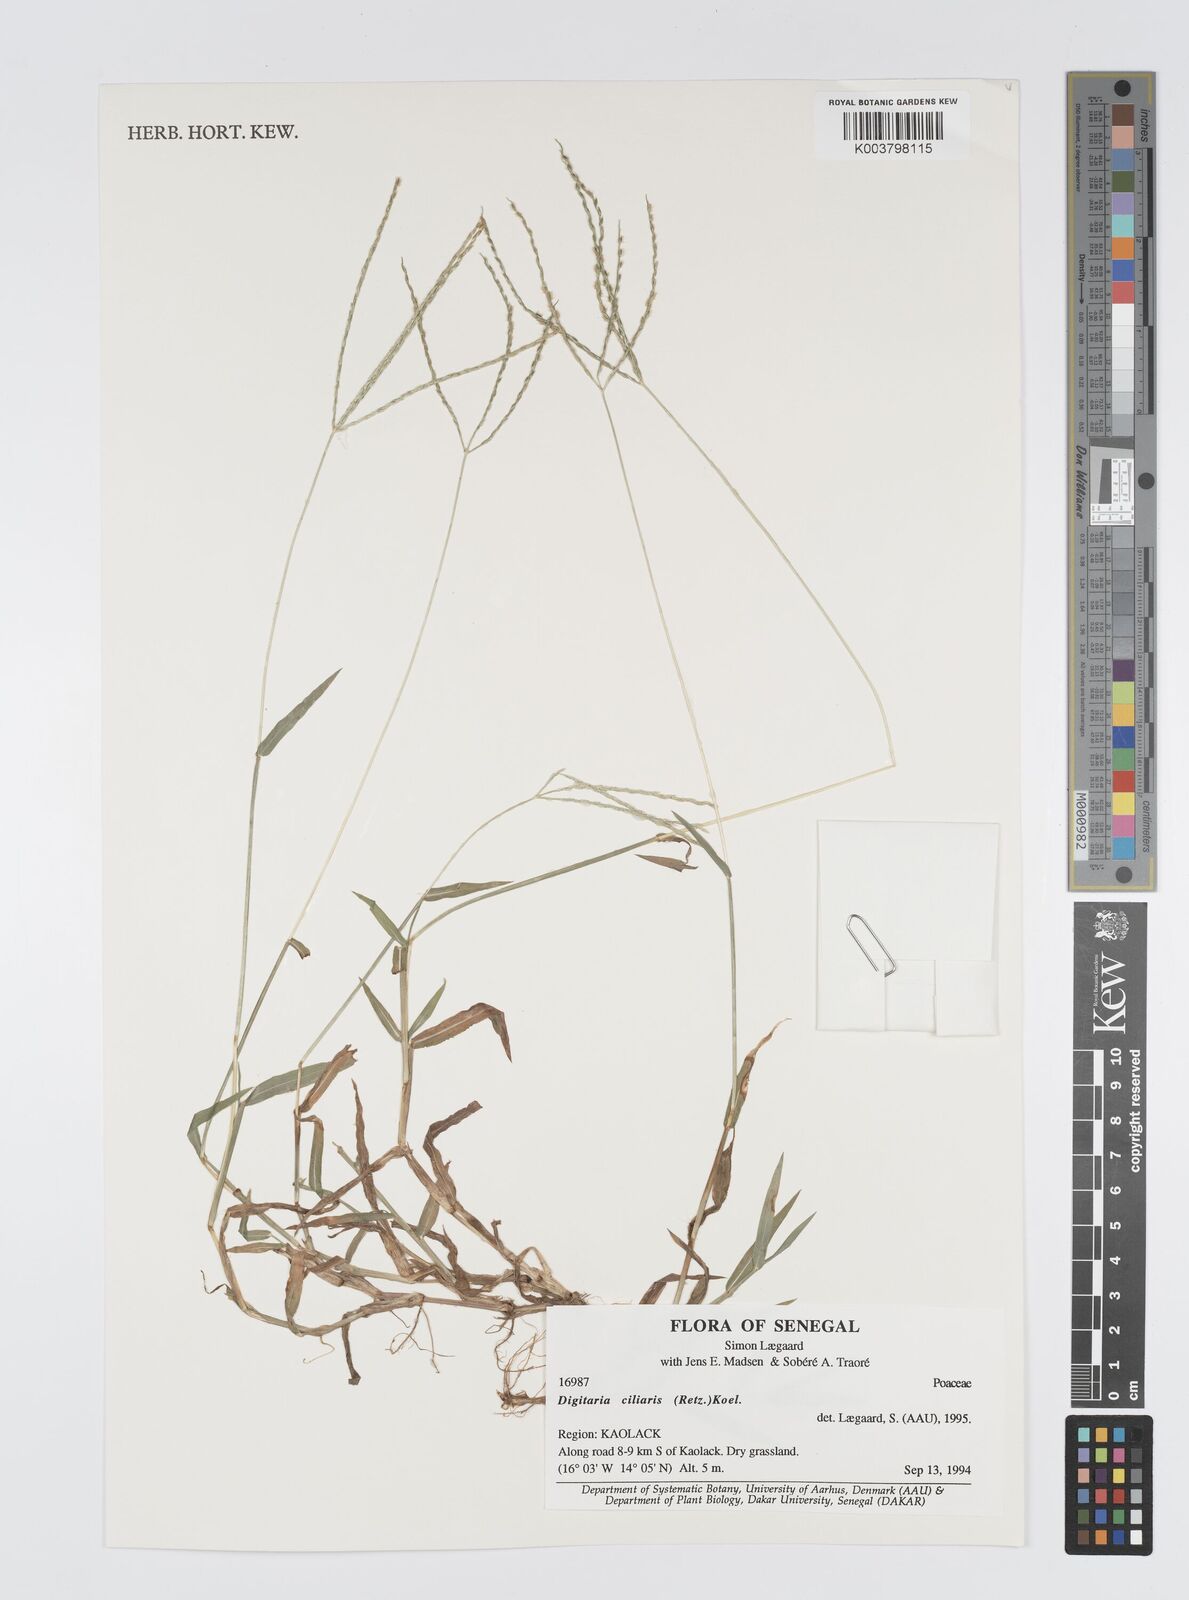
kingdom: Plantae
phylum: Tracheophyta
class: Liliopsida
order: Poales
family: Poaceae
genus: Digitaria
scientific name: Digitaria
